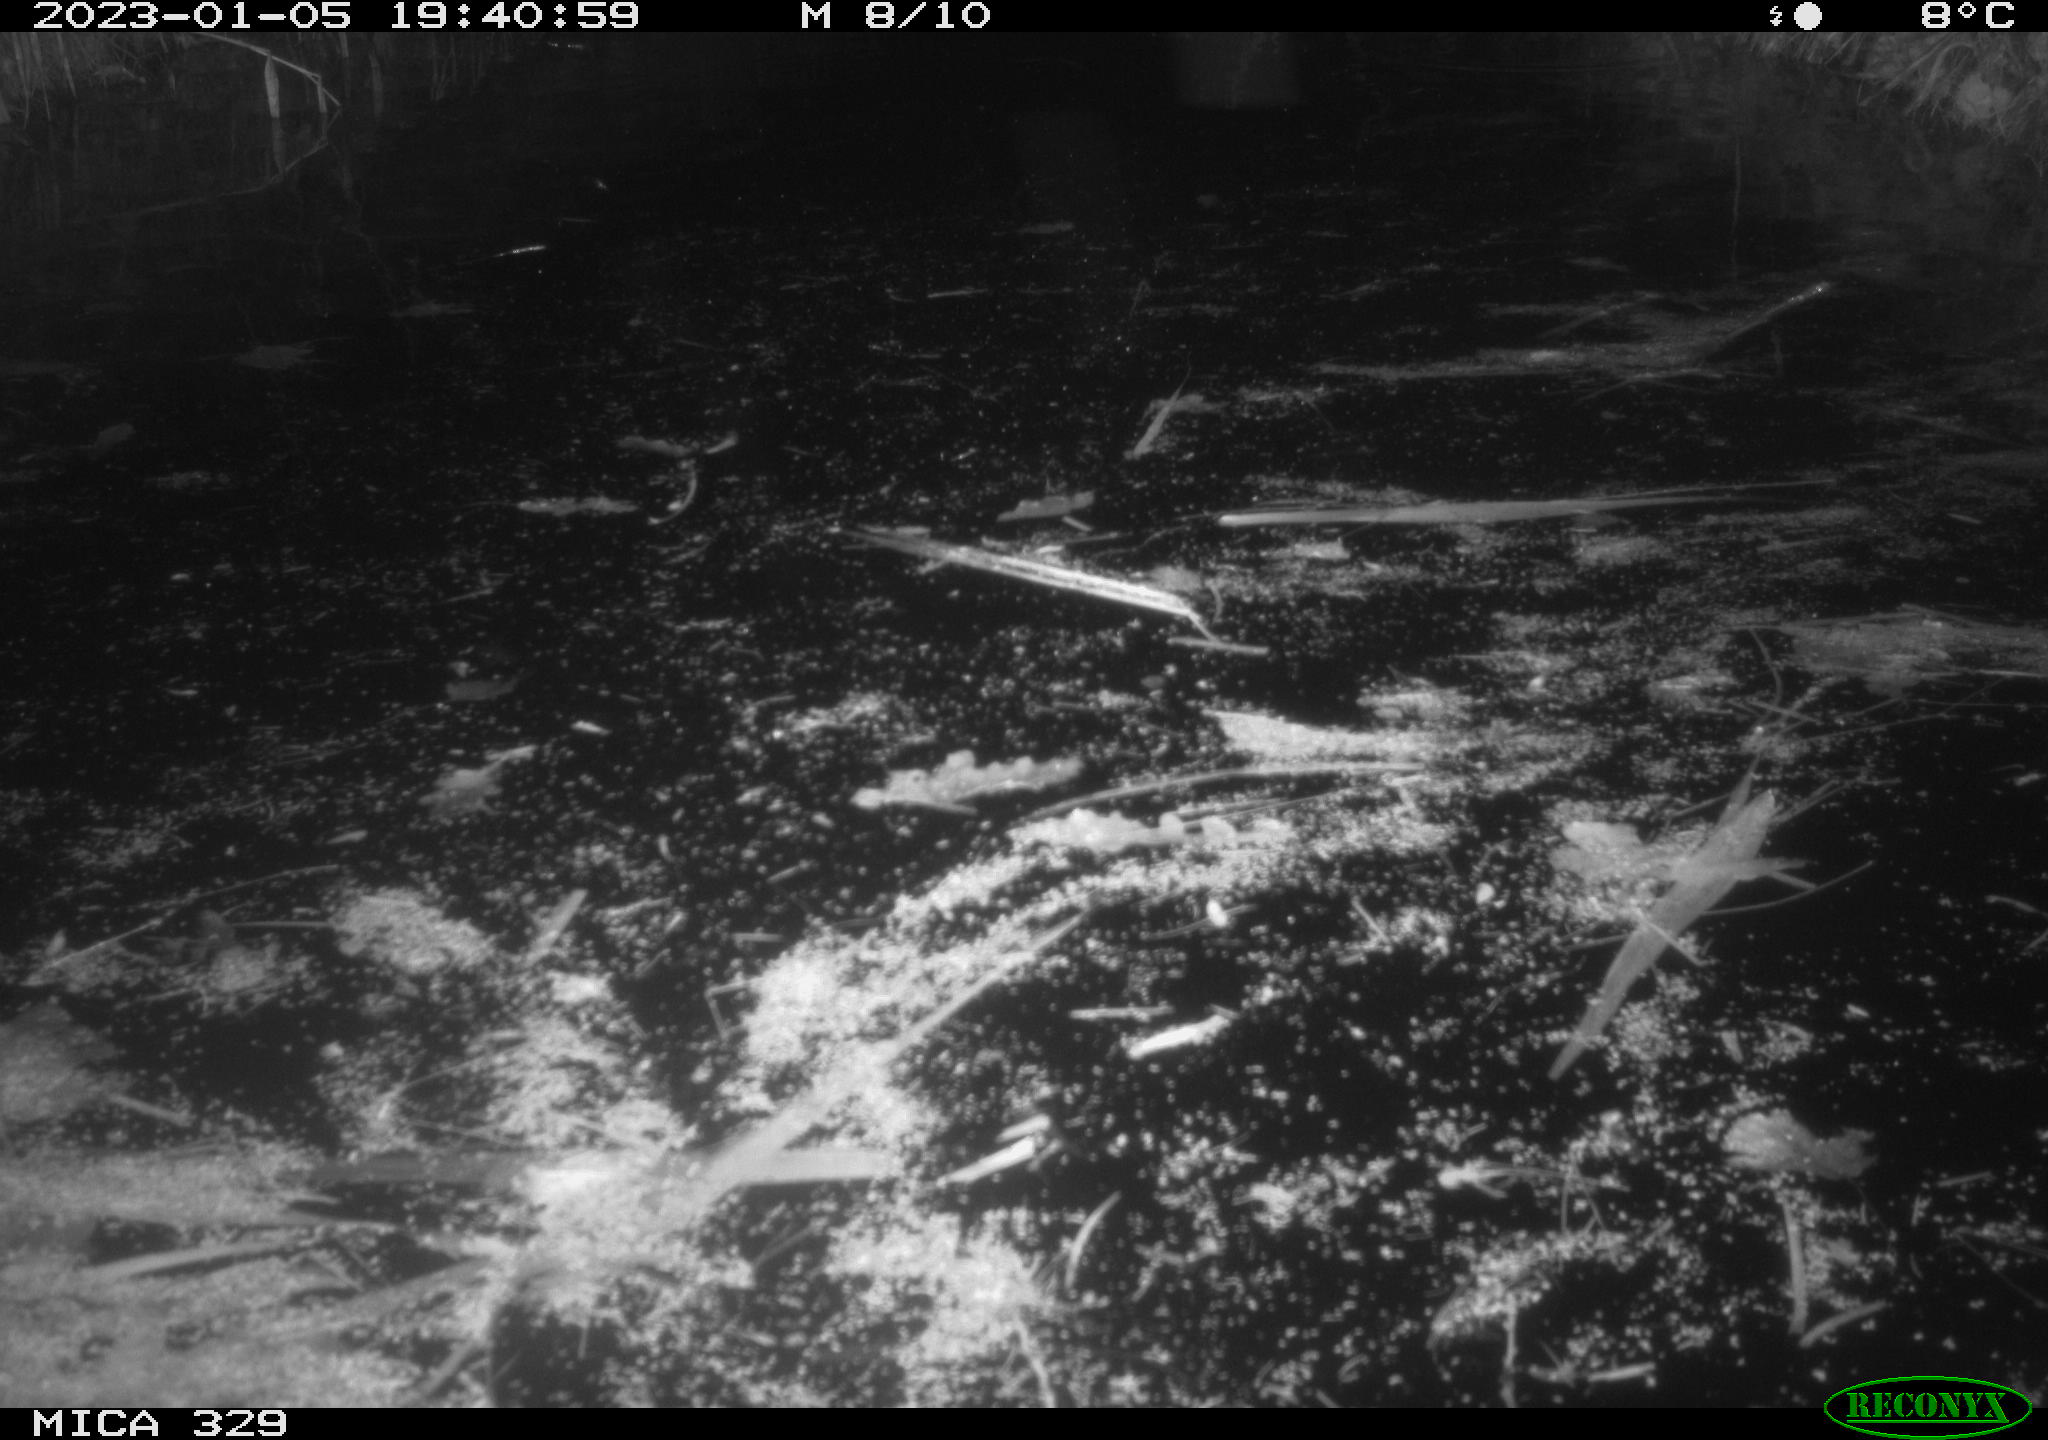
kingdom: Animalia
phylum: Chordata
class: Mammalia
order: Rodentia
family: Cricetidae
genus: Ondatra
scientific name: Ondatra zibethicus
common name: Muskrat
